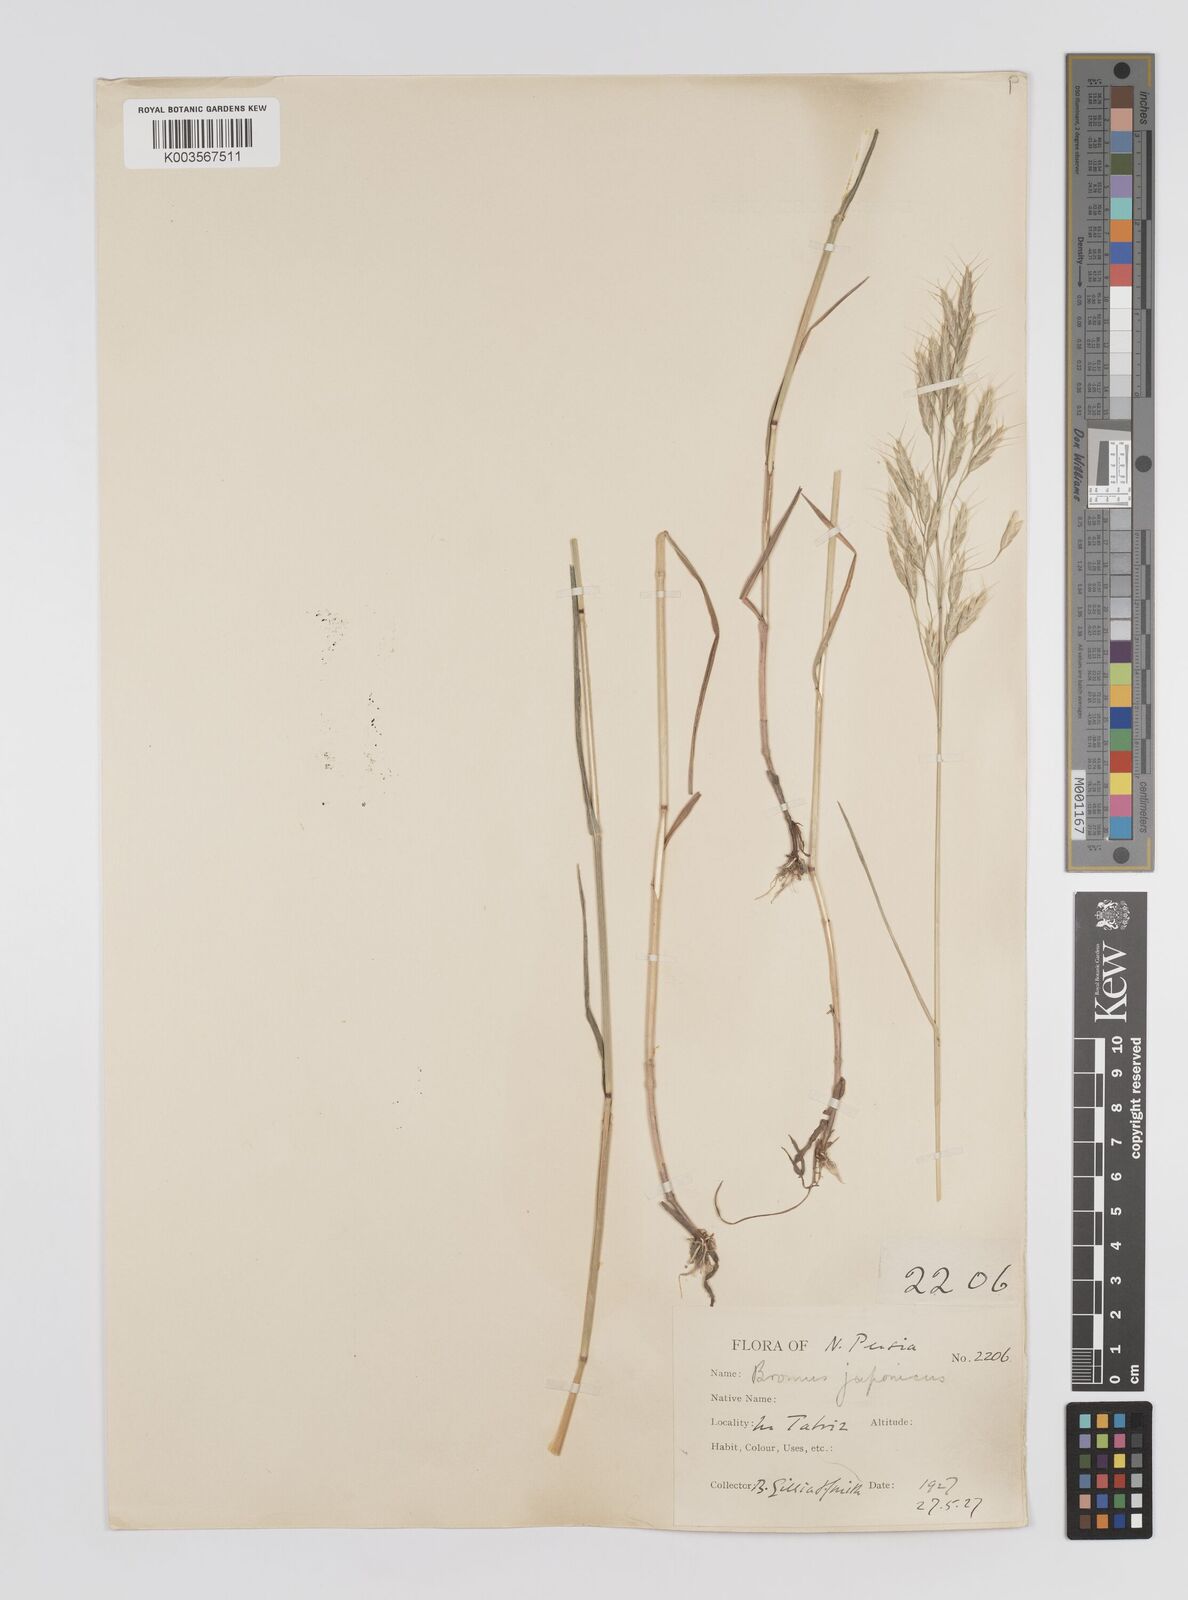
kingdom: Plantae
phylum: Tracheophyta
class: Liliopsida
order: Poales
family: Poaceae
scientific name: Poaceae
